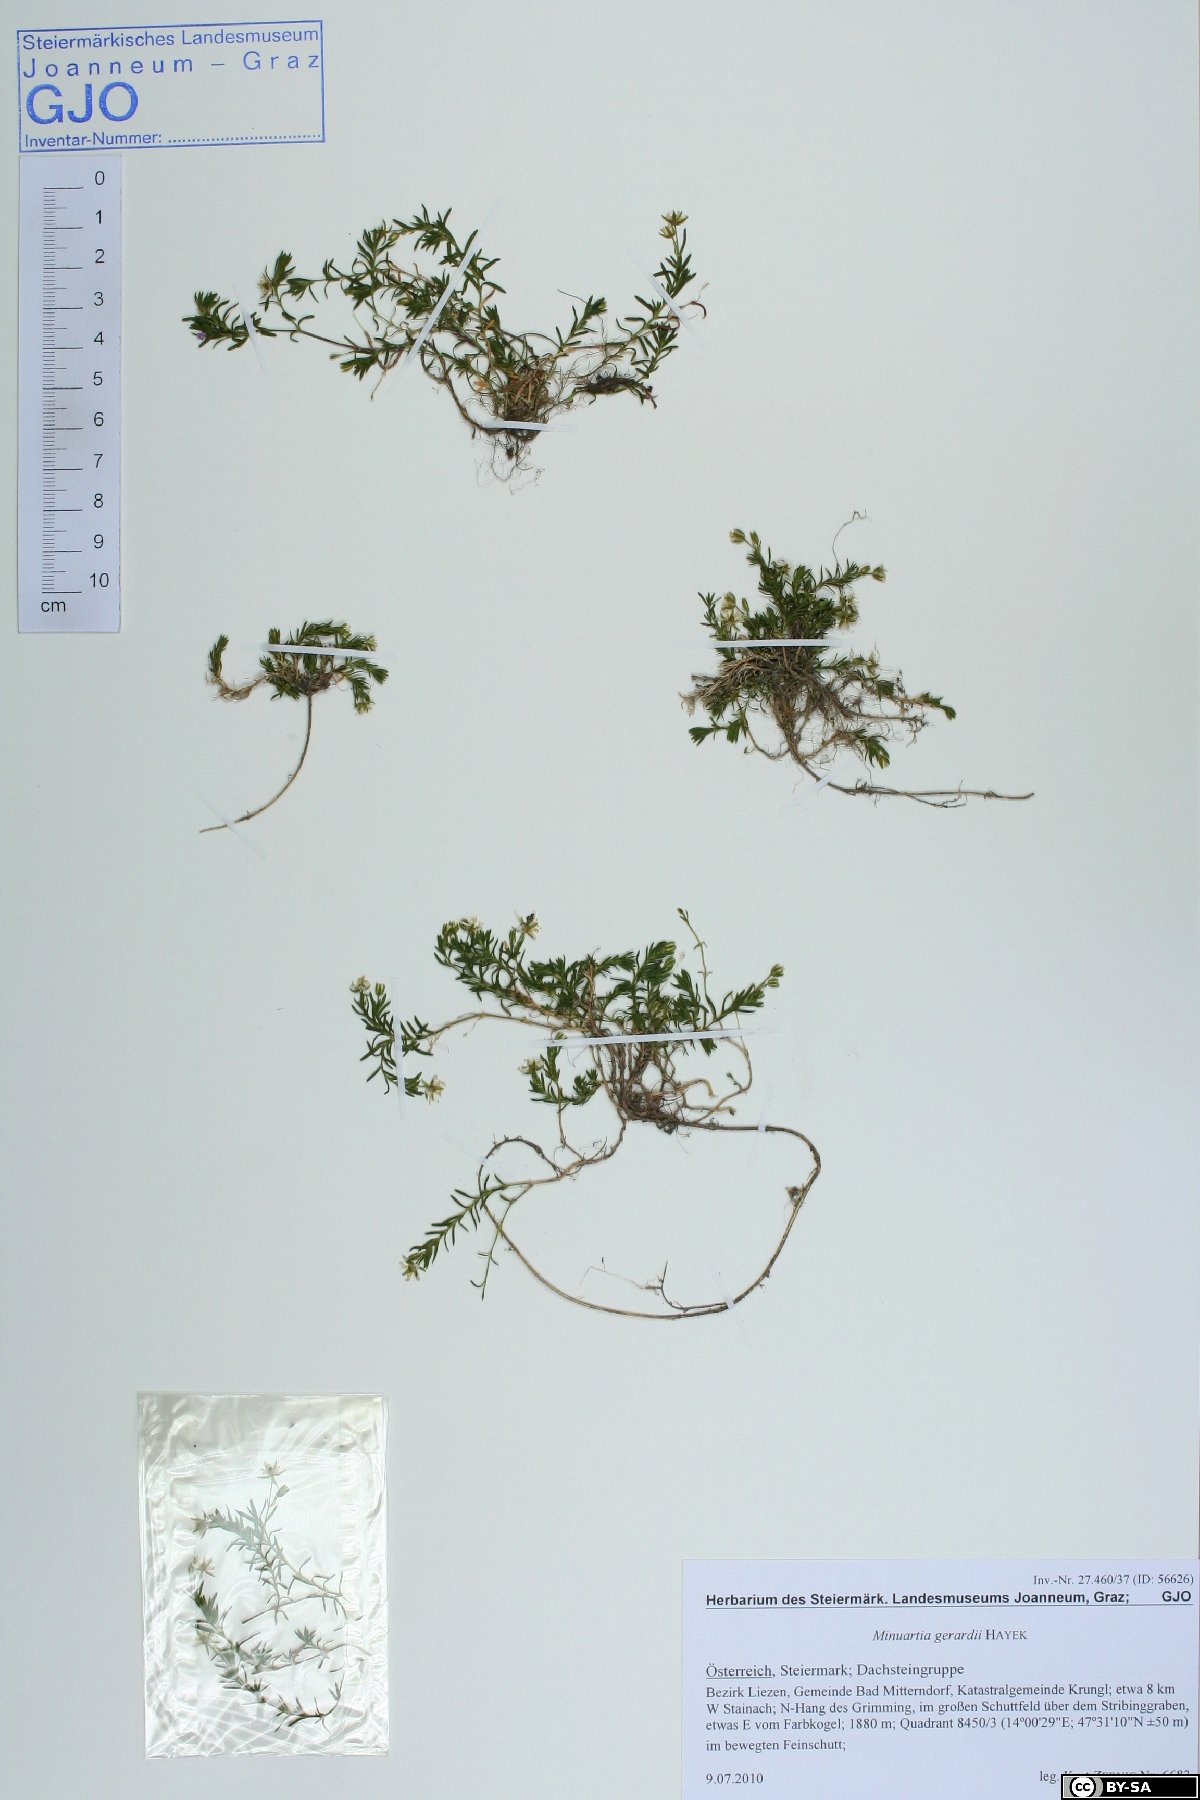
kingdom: Plantae
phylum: Tracheophyta
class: Magnoliopsida
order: Caryophyllales
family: Caryophyllaceae
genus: Sabulina
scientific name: Sabulina verna
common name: Spring sandwort
